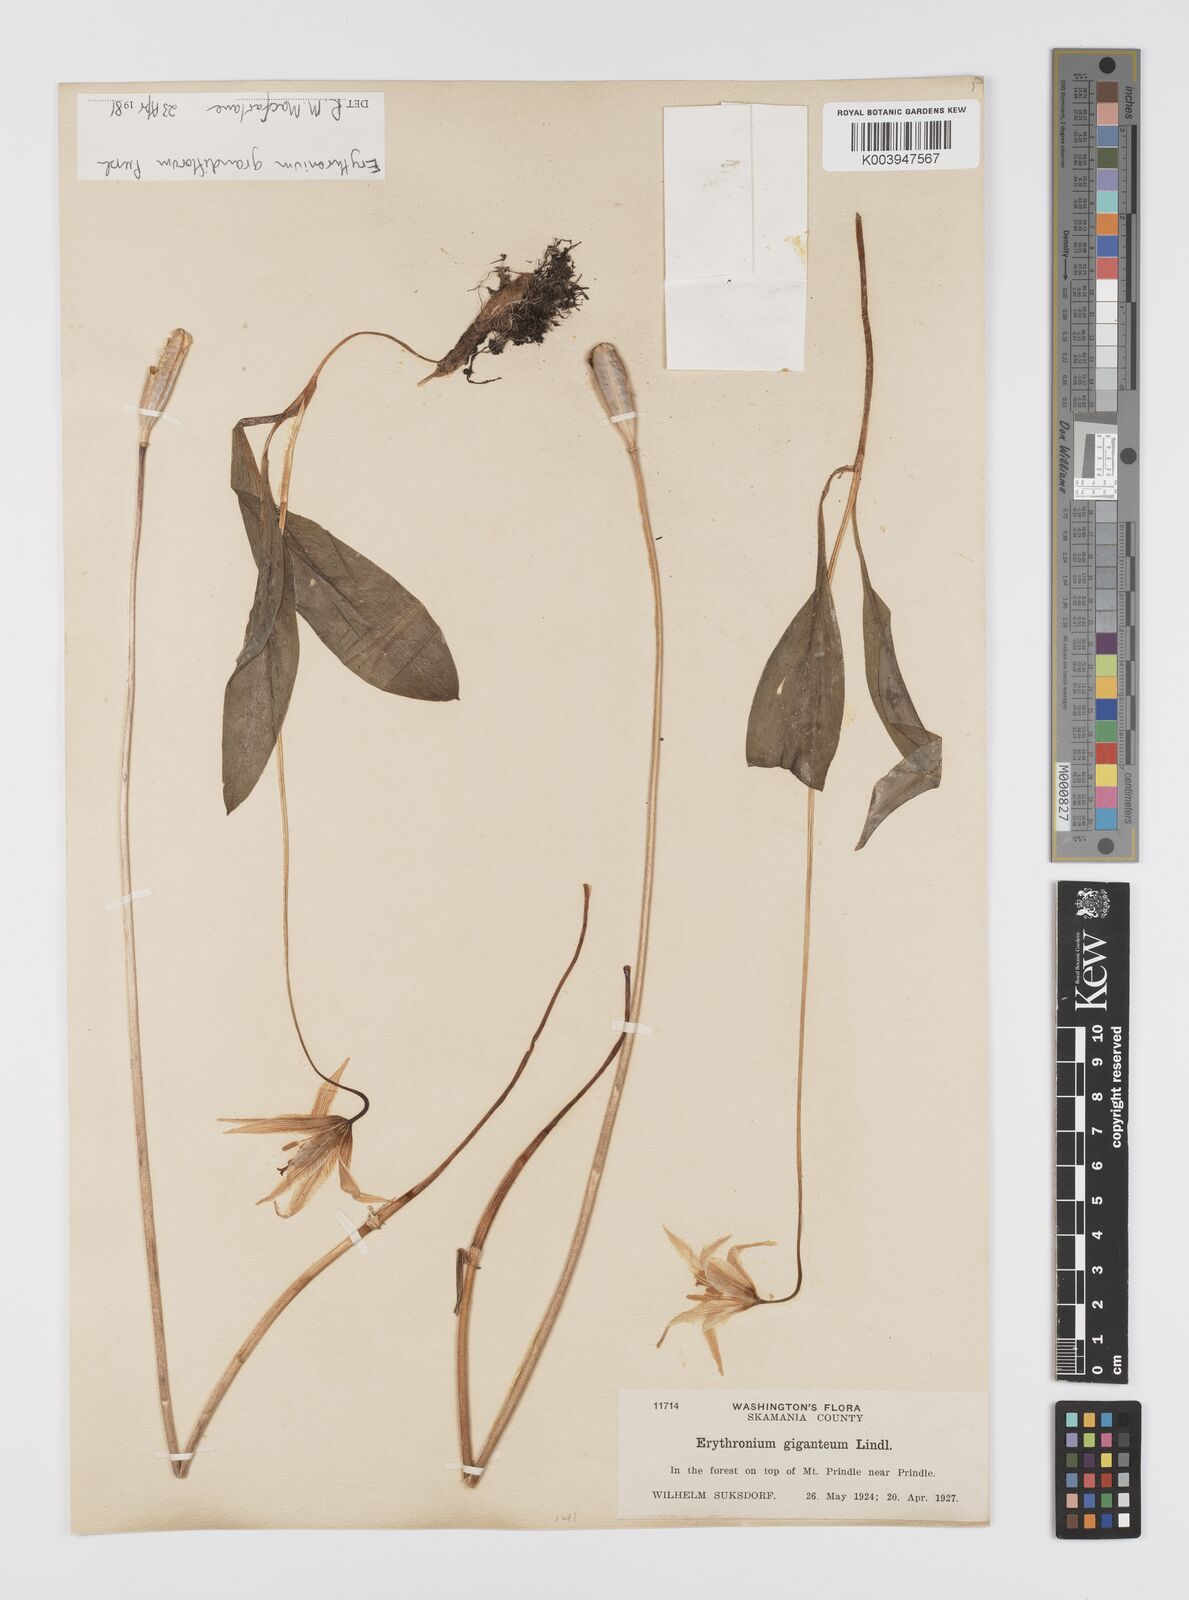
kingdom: Plantae
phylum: Tracheophyta
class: Liliopsida
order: Liliales
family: Liliaceae
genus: Erythronium
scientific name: Erythronium grandiflorum
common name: Avalanche-lily
